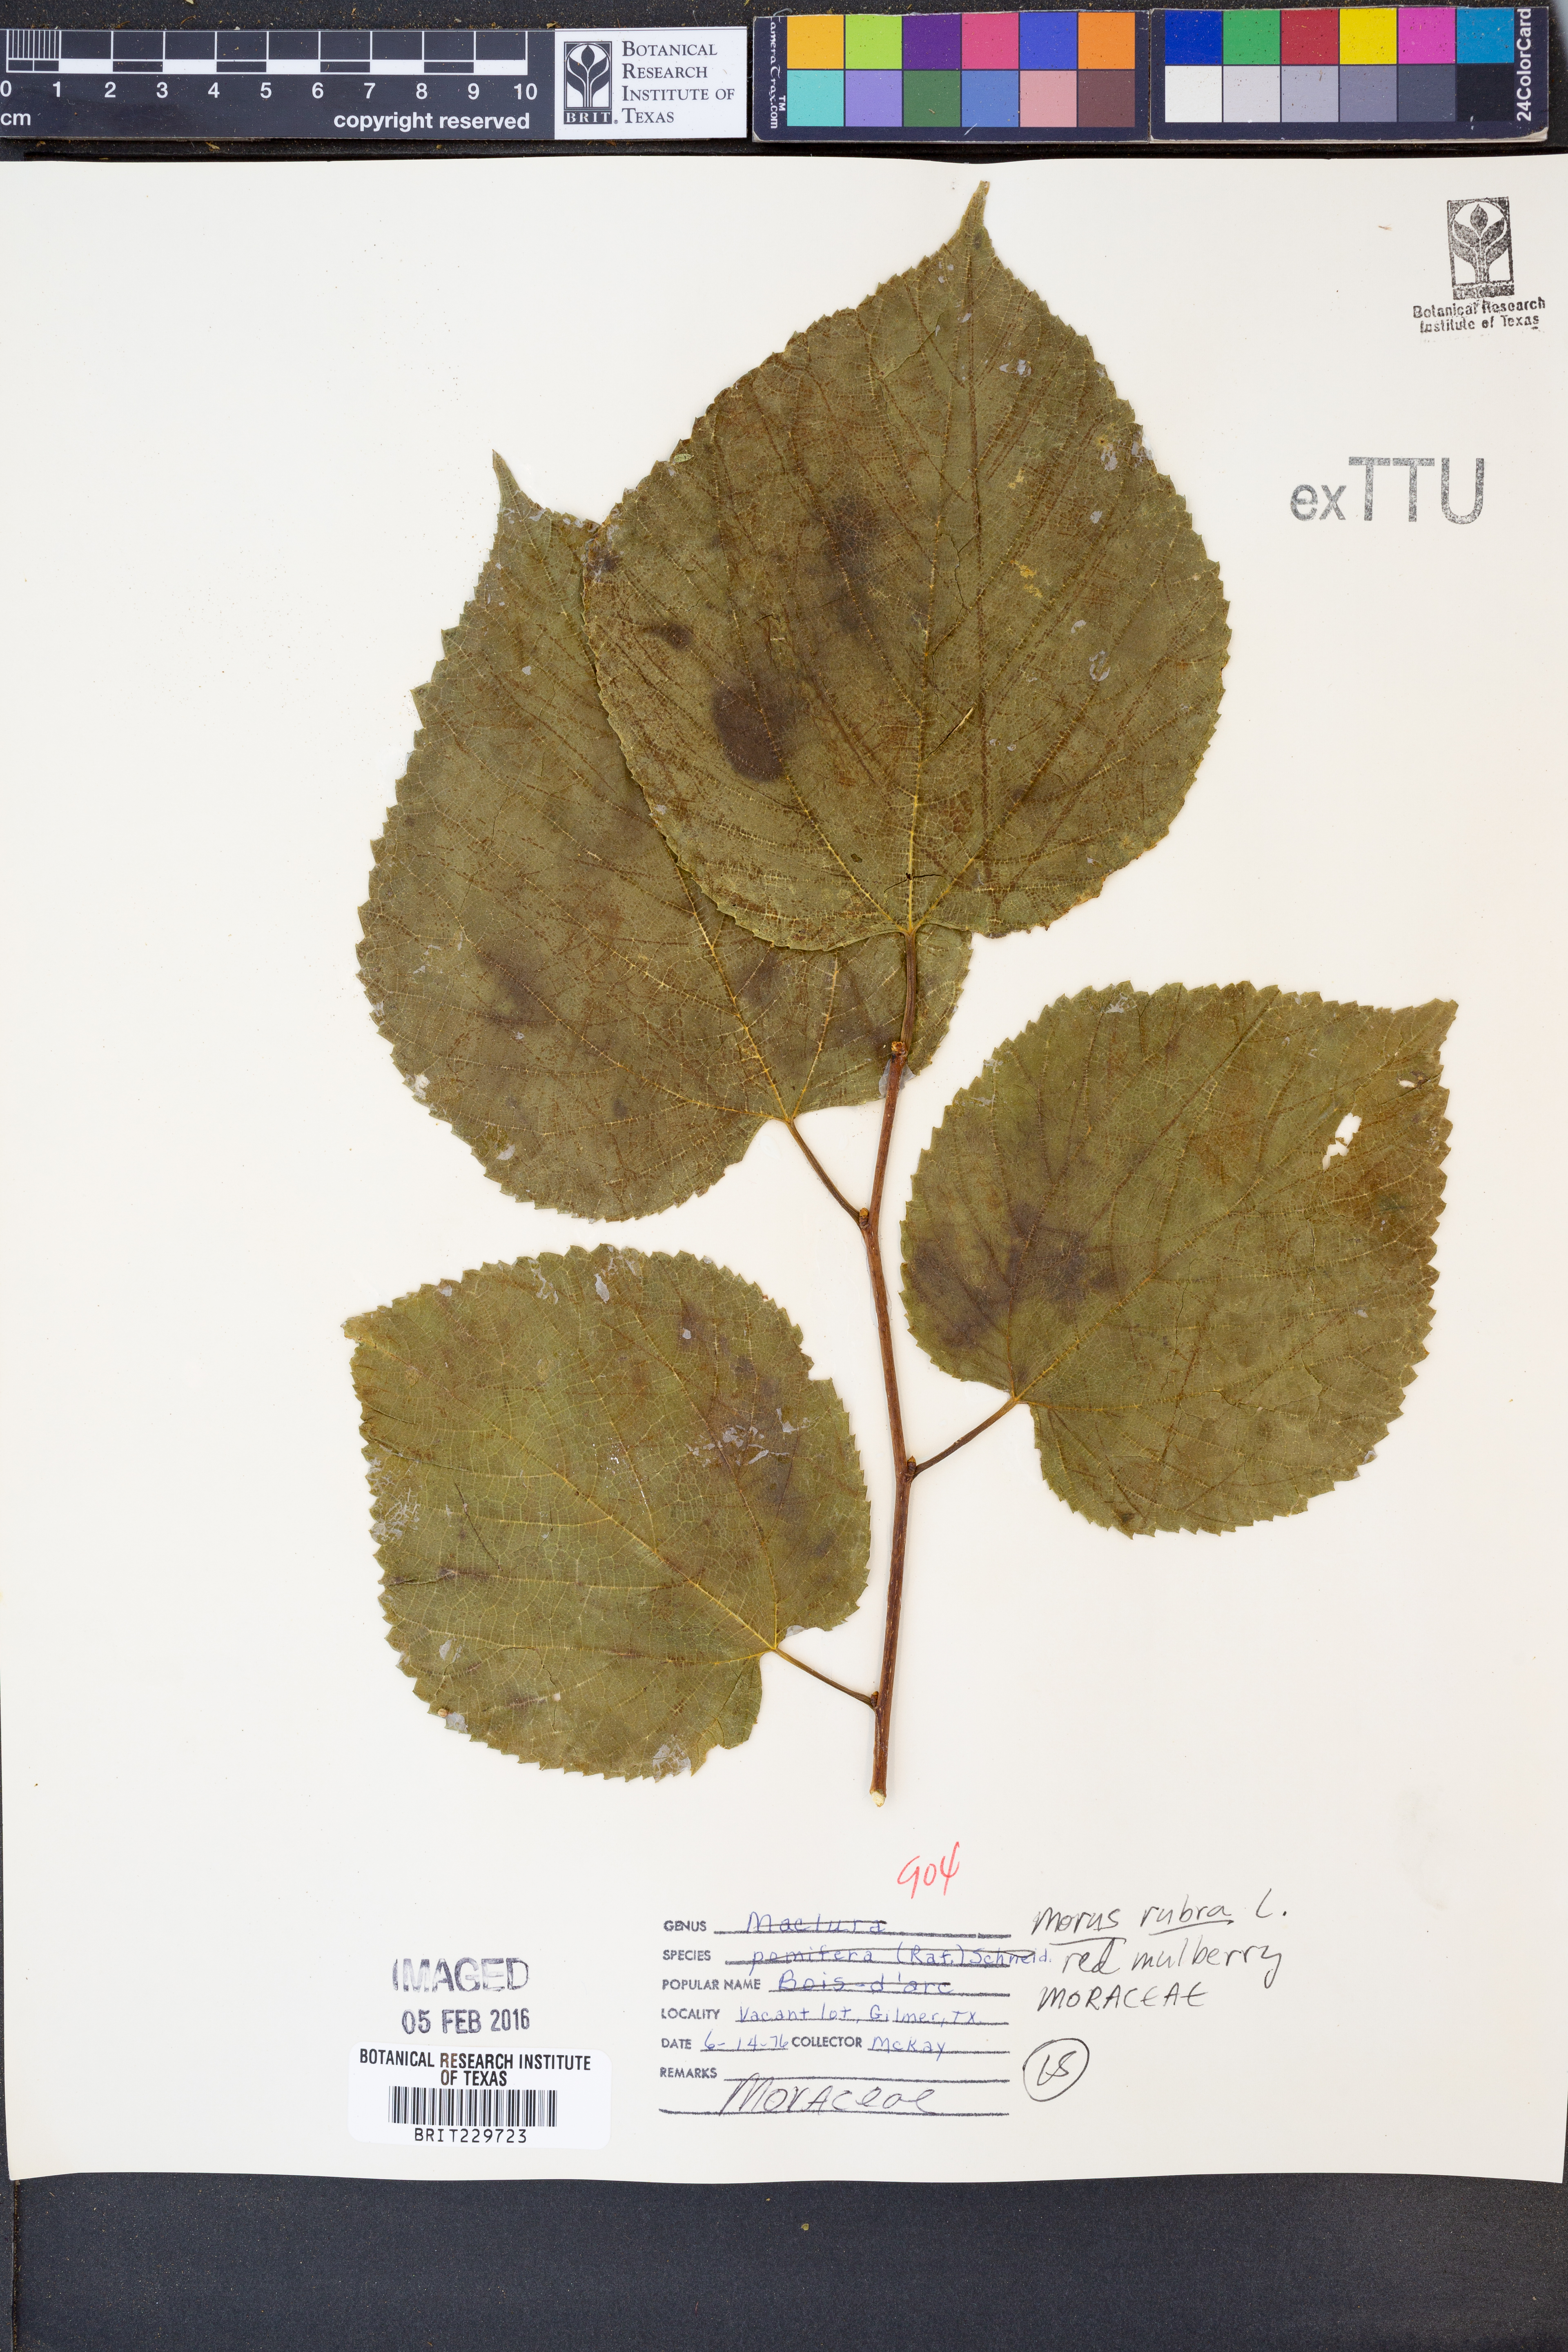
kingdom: Plantae
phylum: Tracheophyta
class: Magnoliopsida
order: Rosales
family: Moraceae
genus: Morus
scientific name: Morus rubra
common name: Red mulberry
